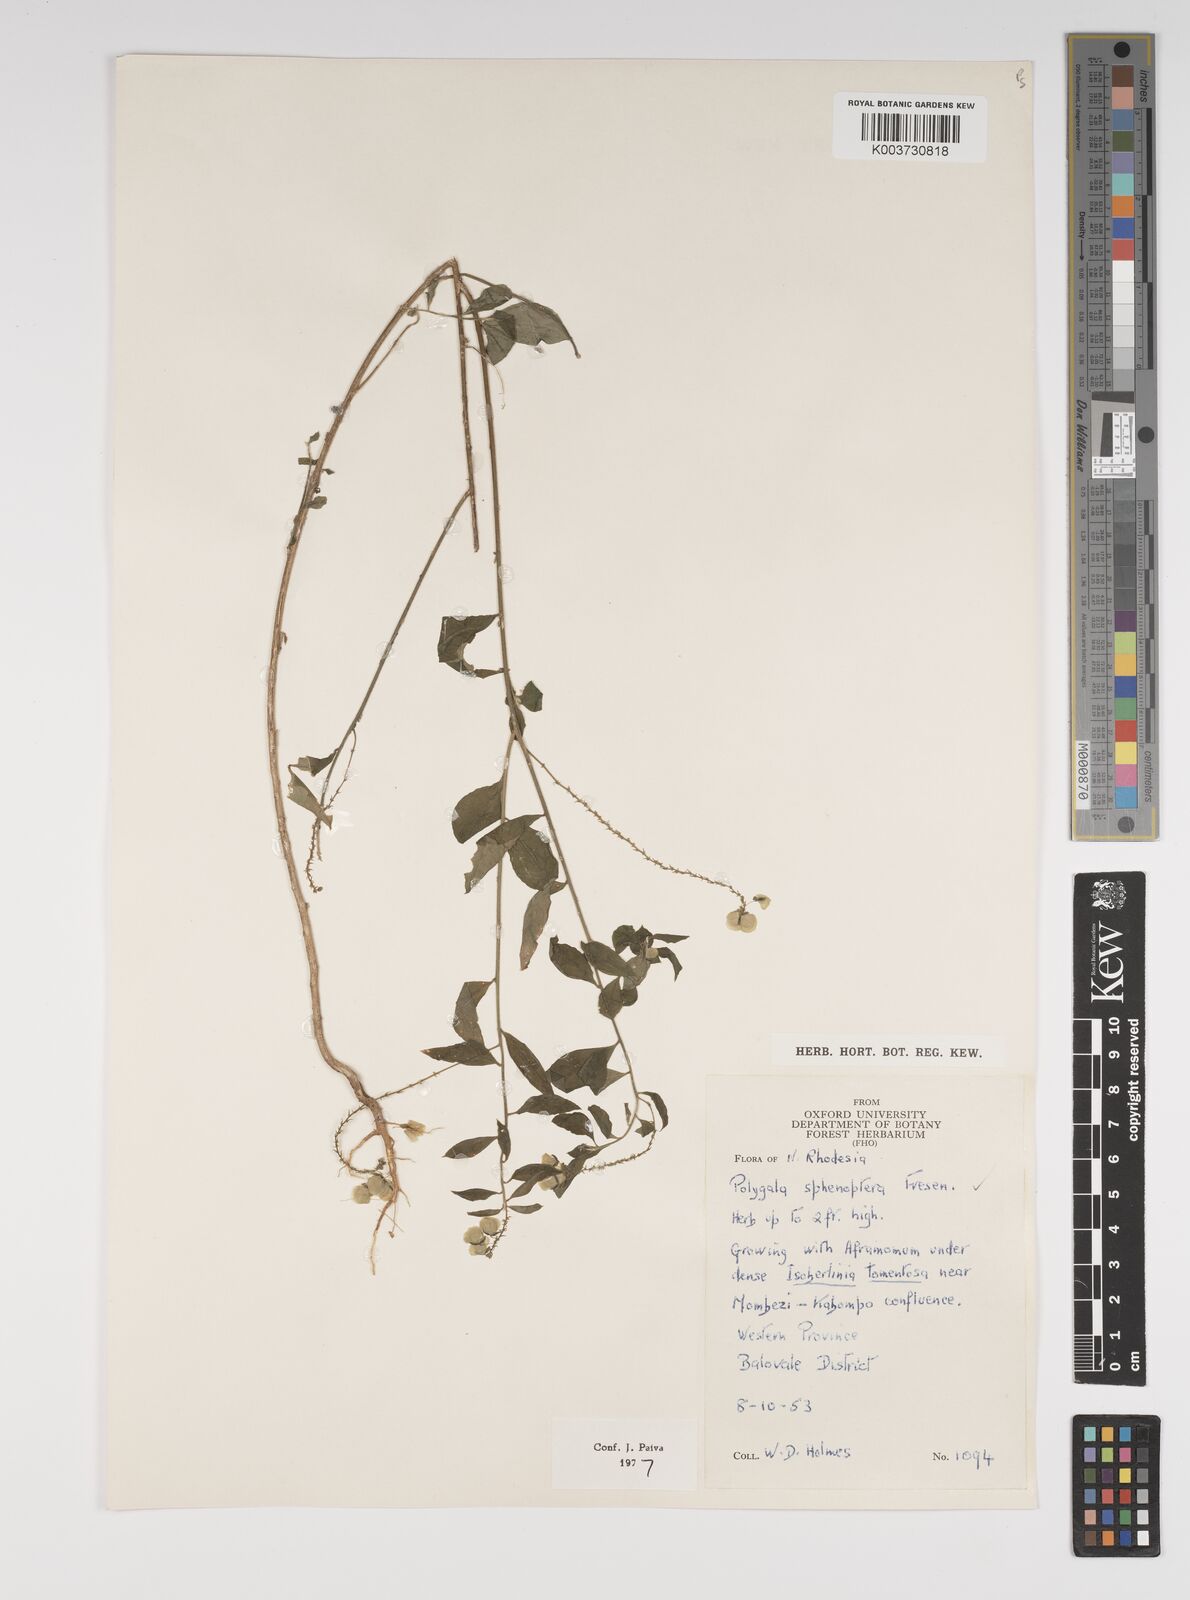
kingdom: Plantae
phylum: Tracheophyta
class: Magnoliopsida
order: Fabales
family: Polygalaceae
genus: Polygala
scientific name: Polygala sphenoptera
